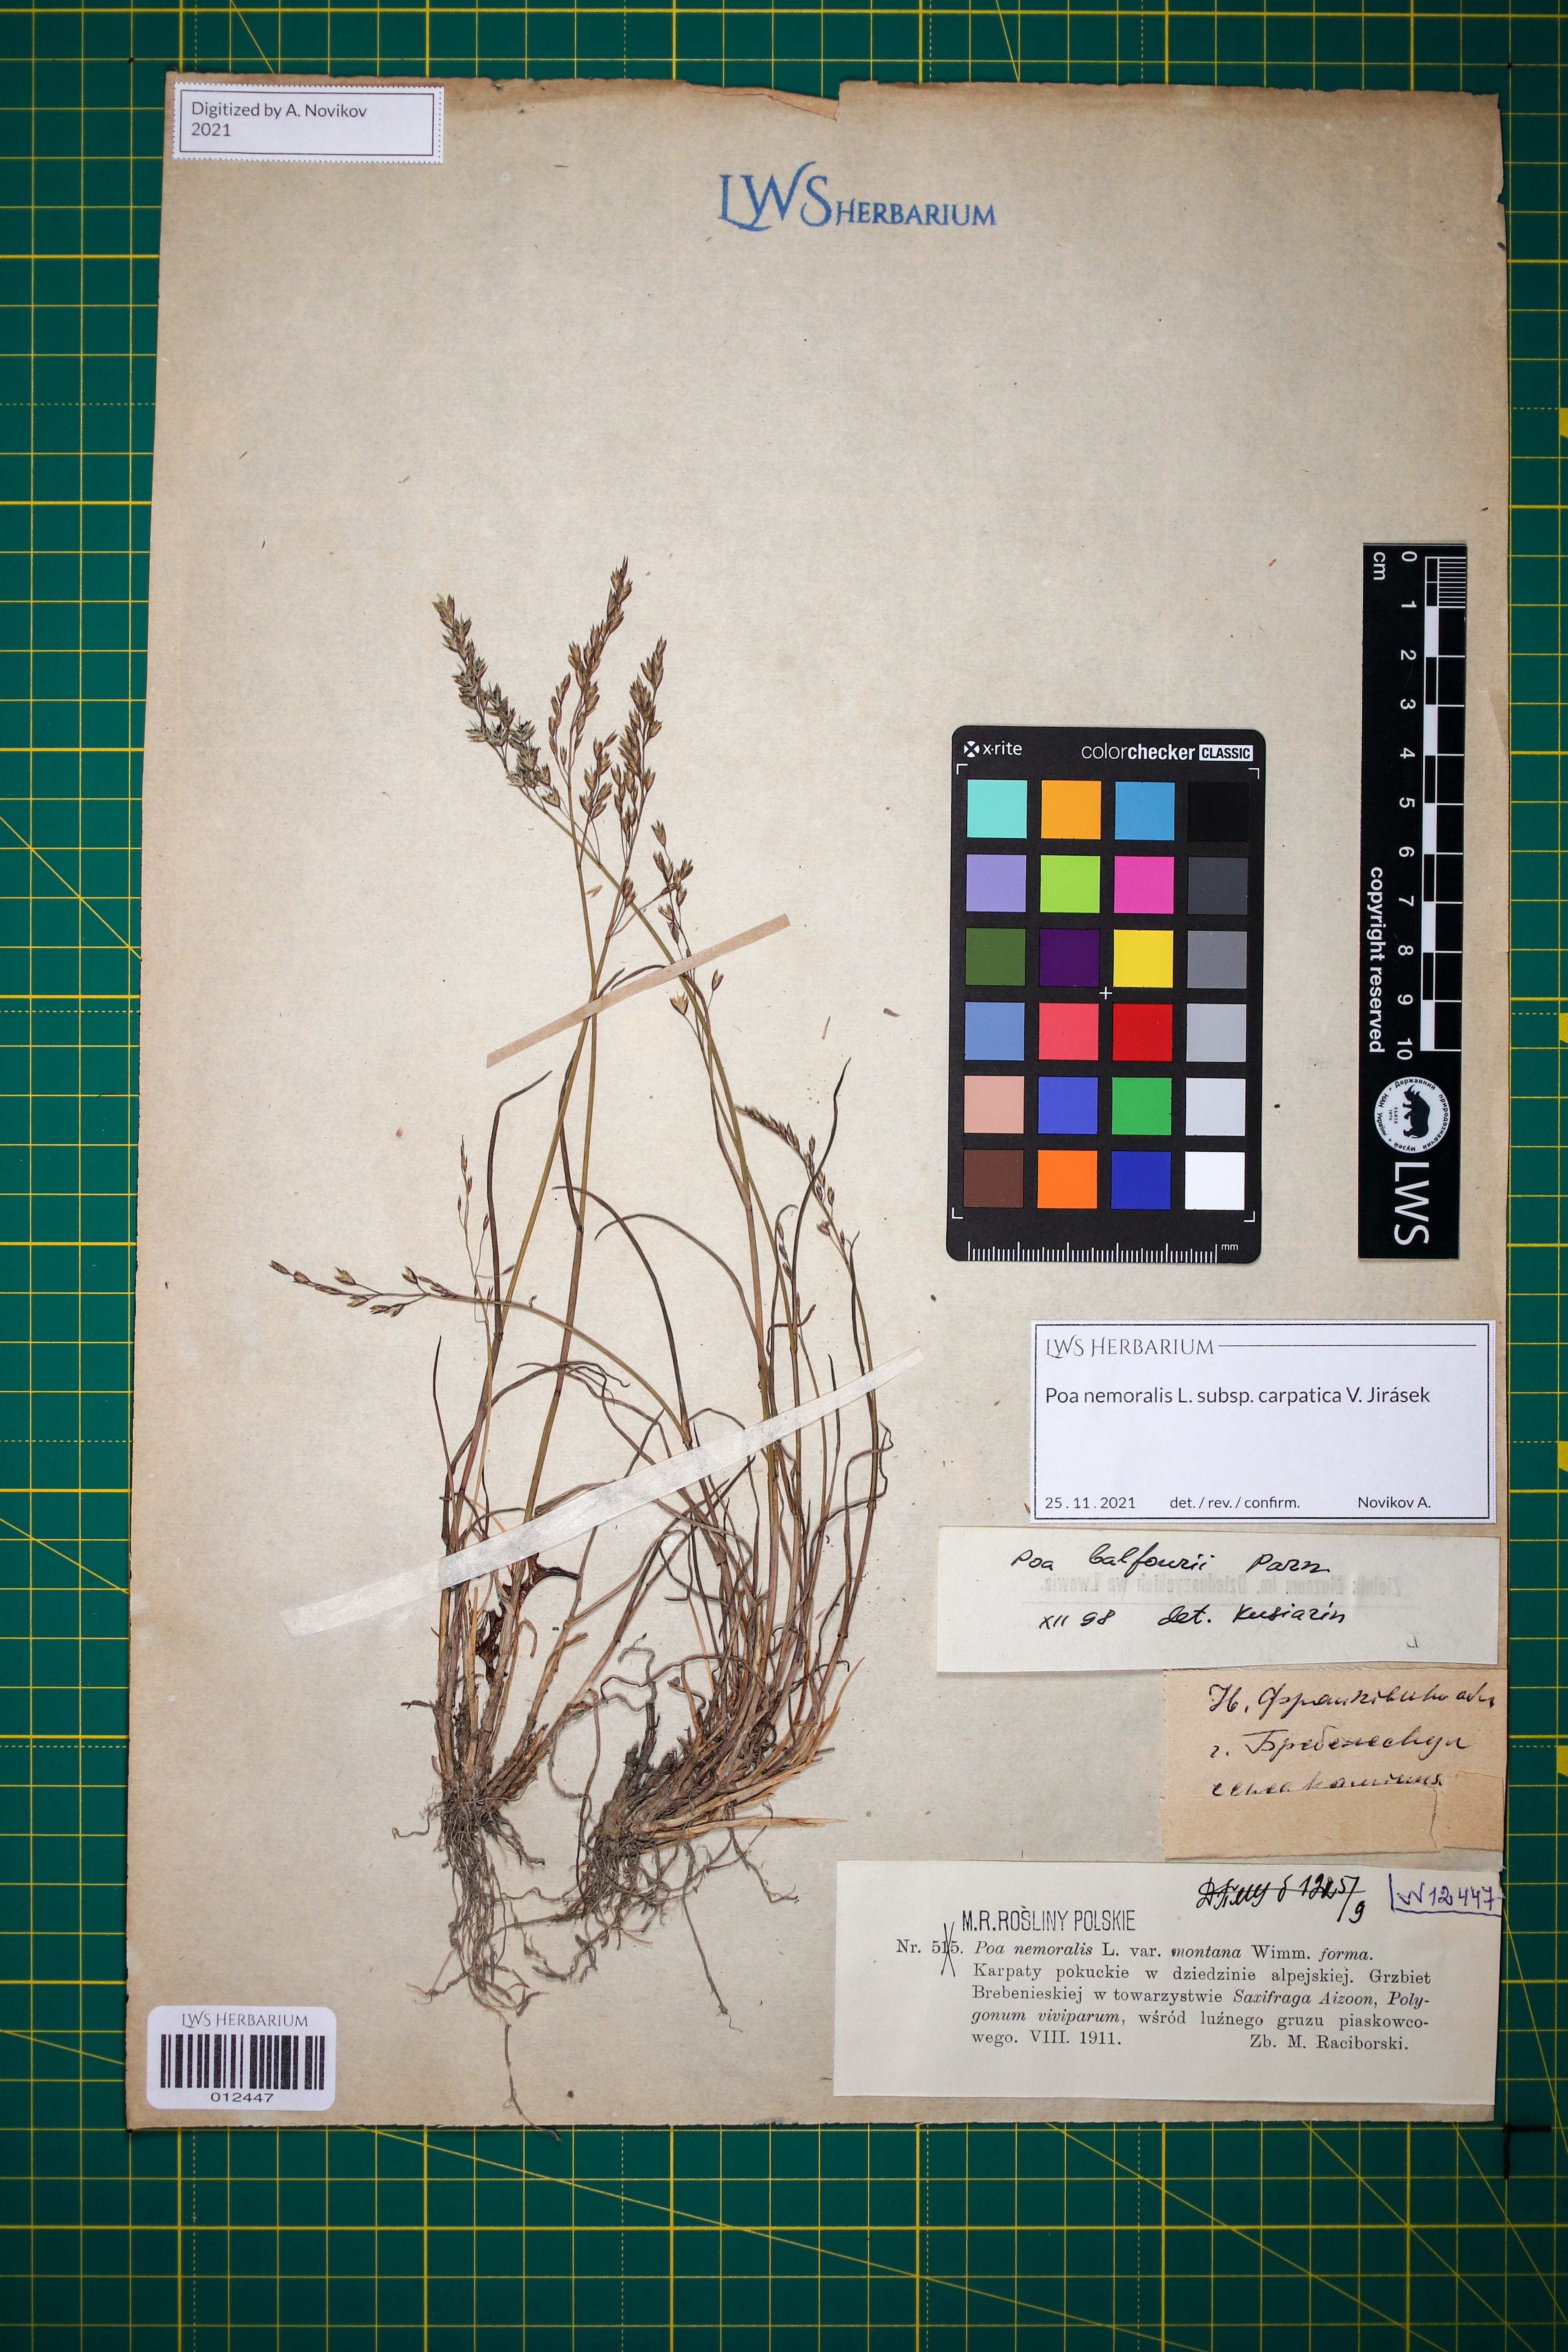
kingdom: Plantae
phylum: Tracheophyta
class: Liliopsida
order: Poales
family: Poaceae
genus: Poa
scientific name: Poa carpatica
